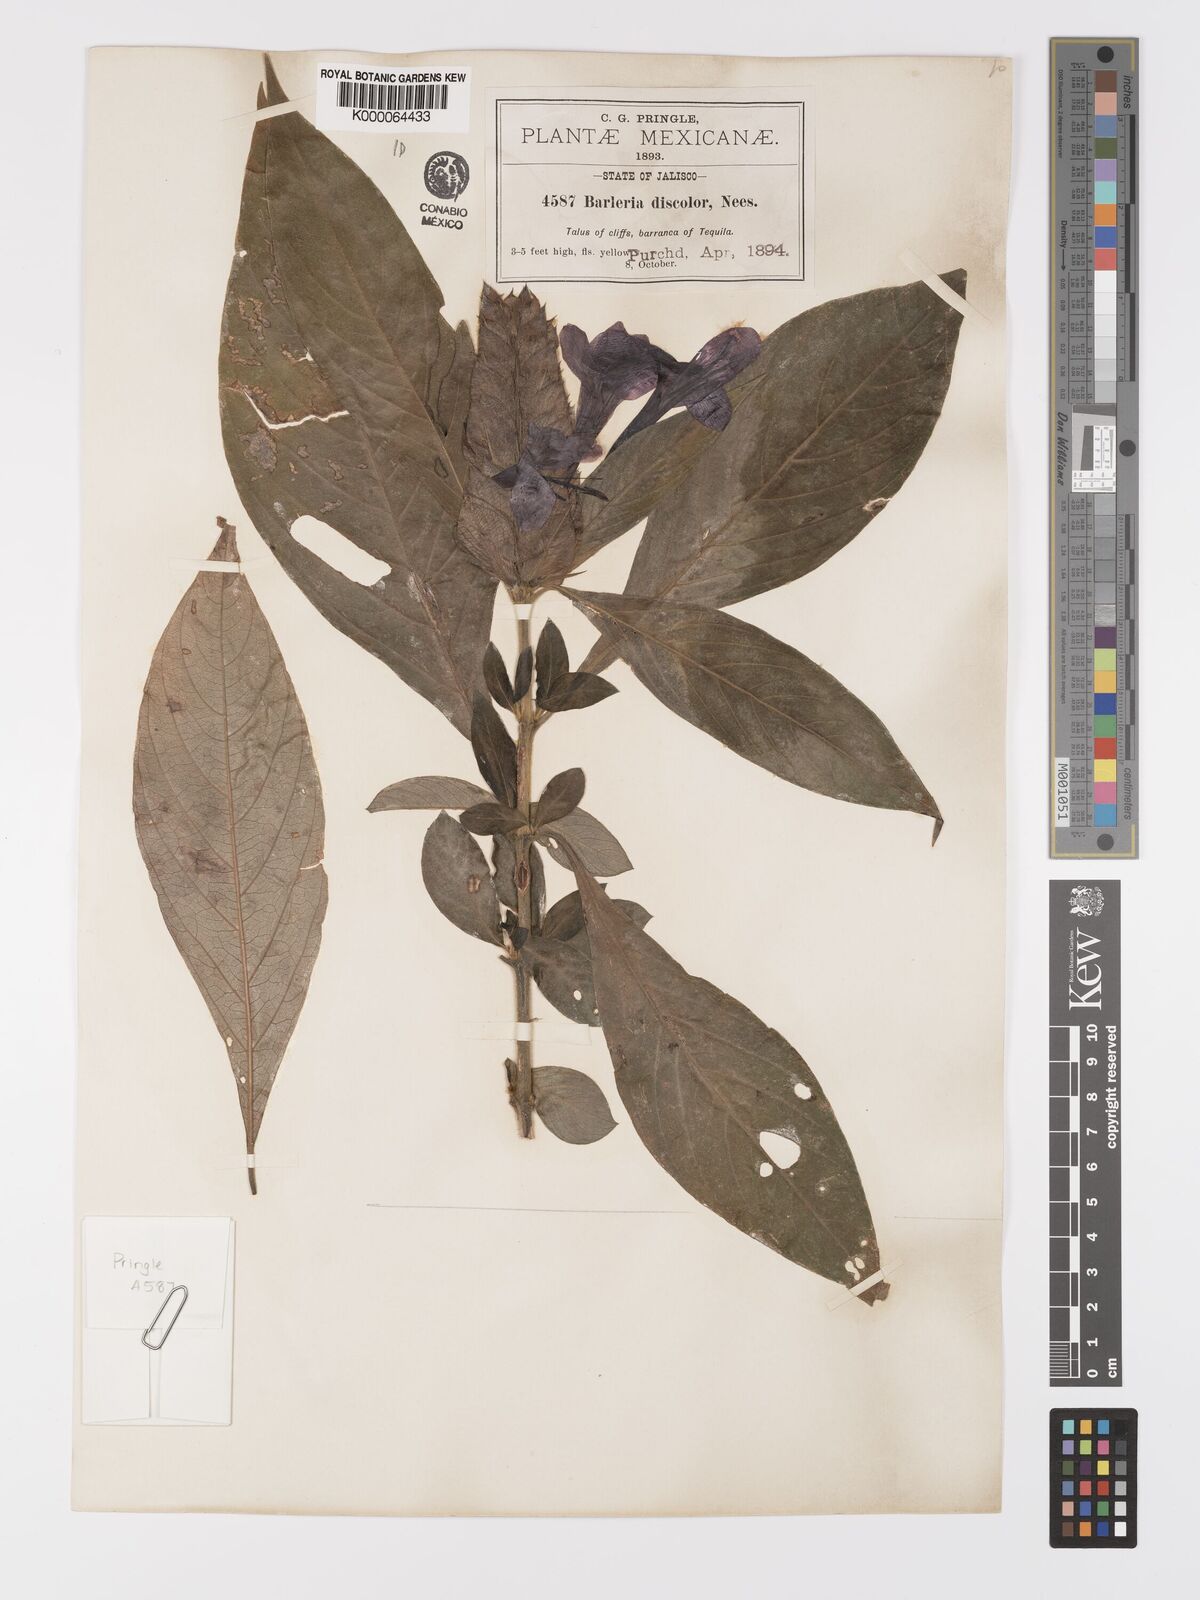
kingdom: Plantae
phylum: Tracheophyta
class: Magnoliopsida
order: Lamiales
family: Acanthaceae
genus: Barleria
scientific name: Barleria oenotheroides
